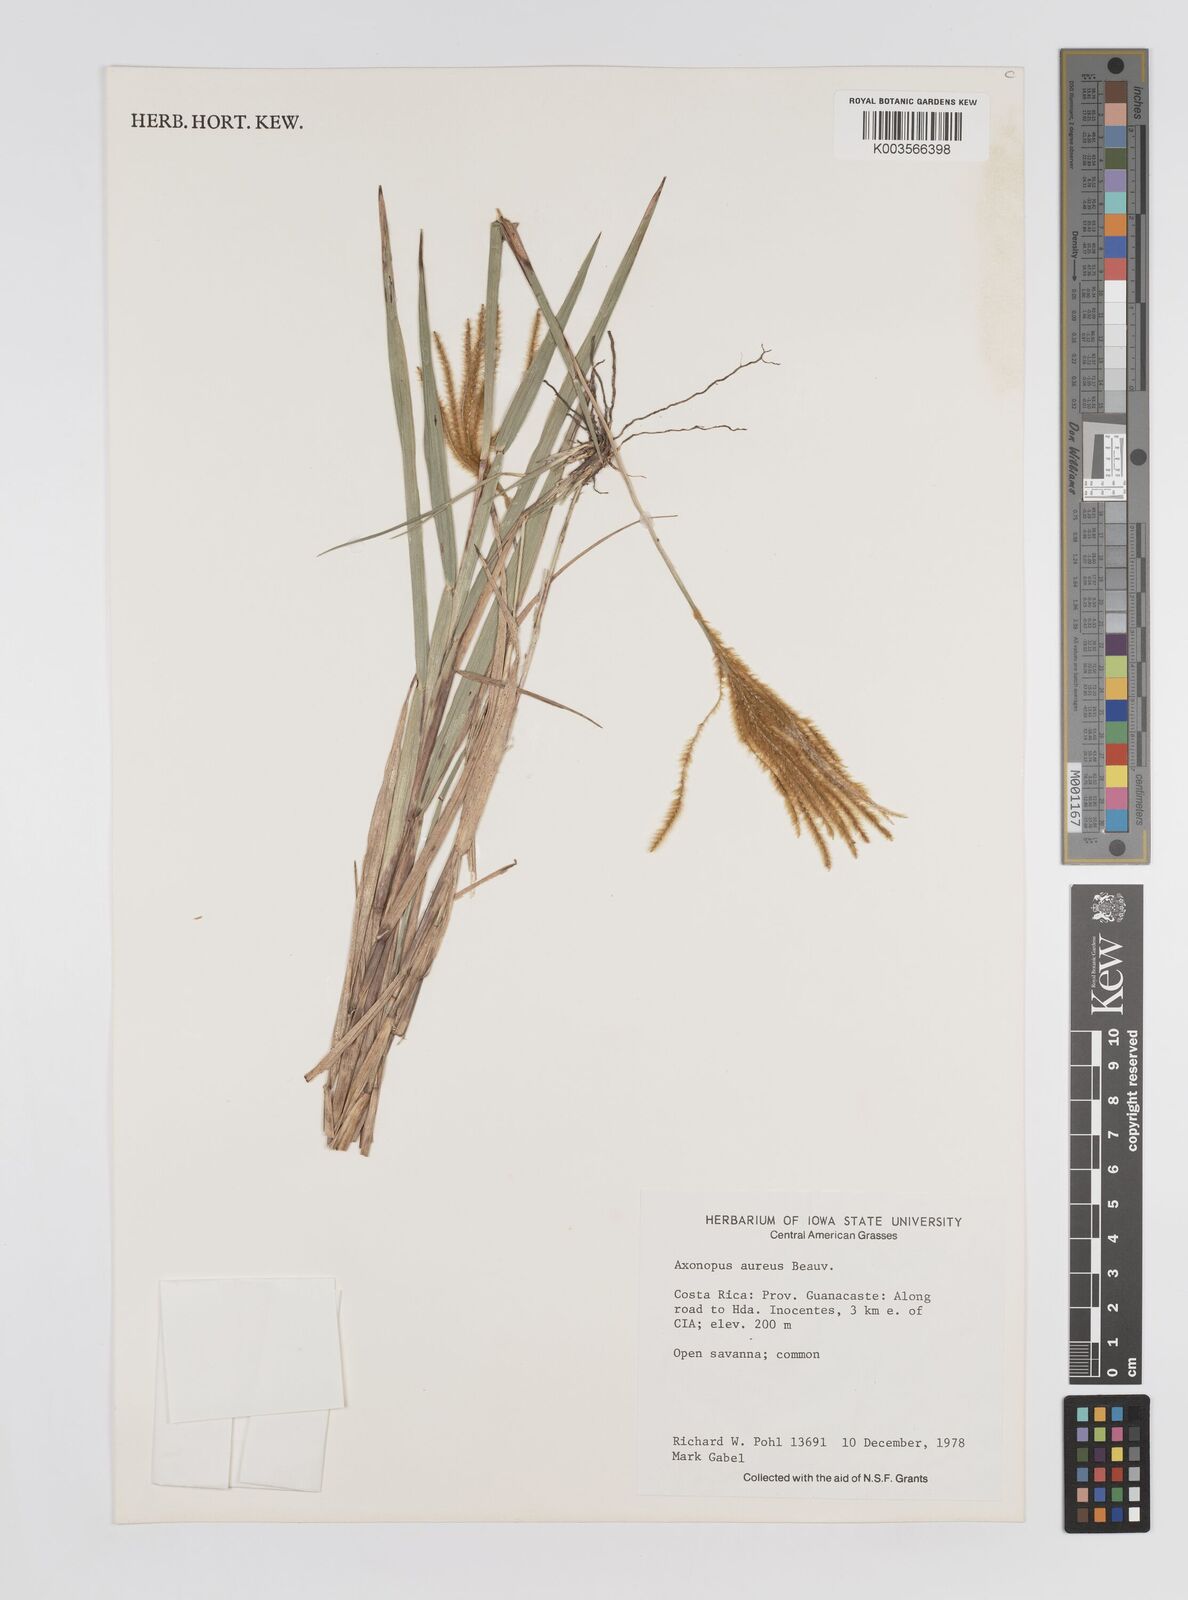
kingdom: Plantae
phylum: Tracheophyta
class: Liliopsida
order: Poales
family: Poaceae
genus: Axonopus
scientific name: Axonopus aureus
